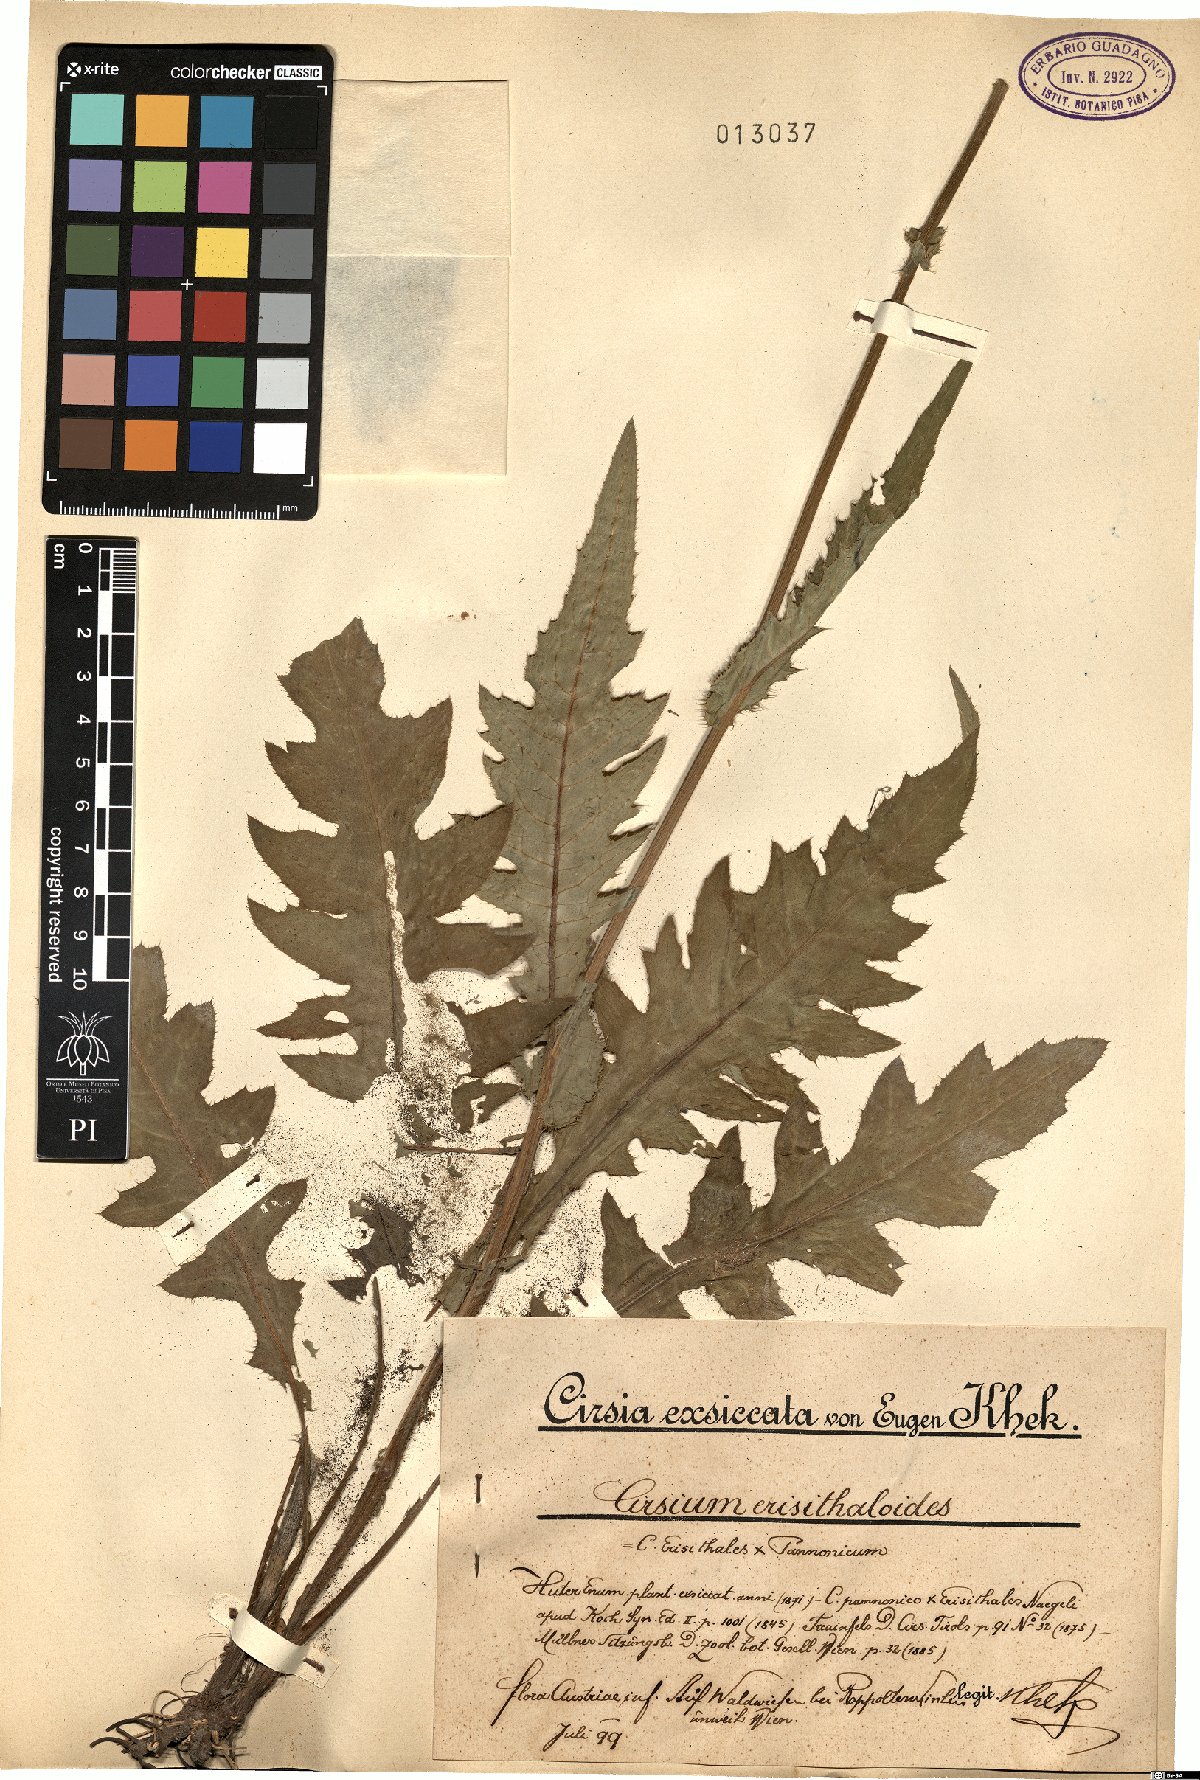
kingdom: Plantae
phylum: Tracheophyta
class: Magnoliopsida
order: Asterales
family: Asteraceae
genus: Cirsium
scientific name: Cirsium erisithaloides
